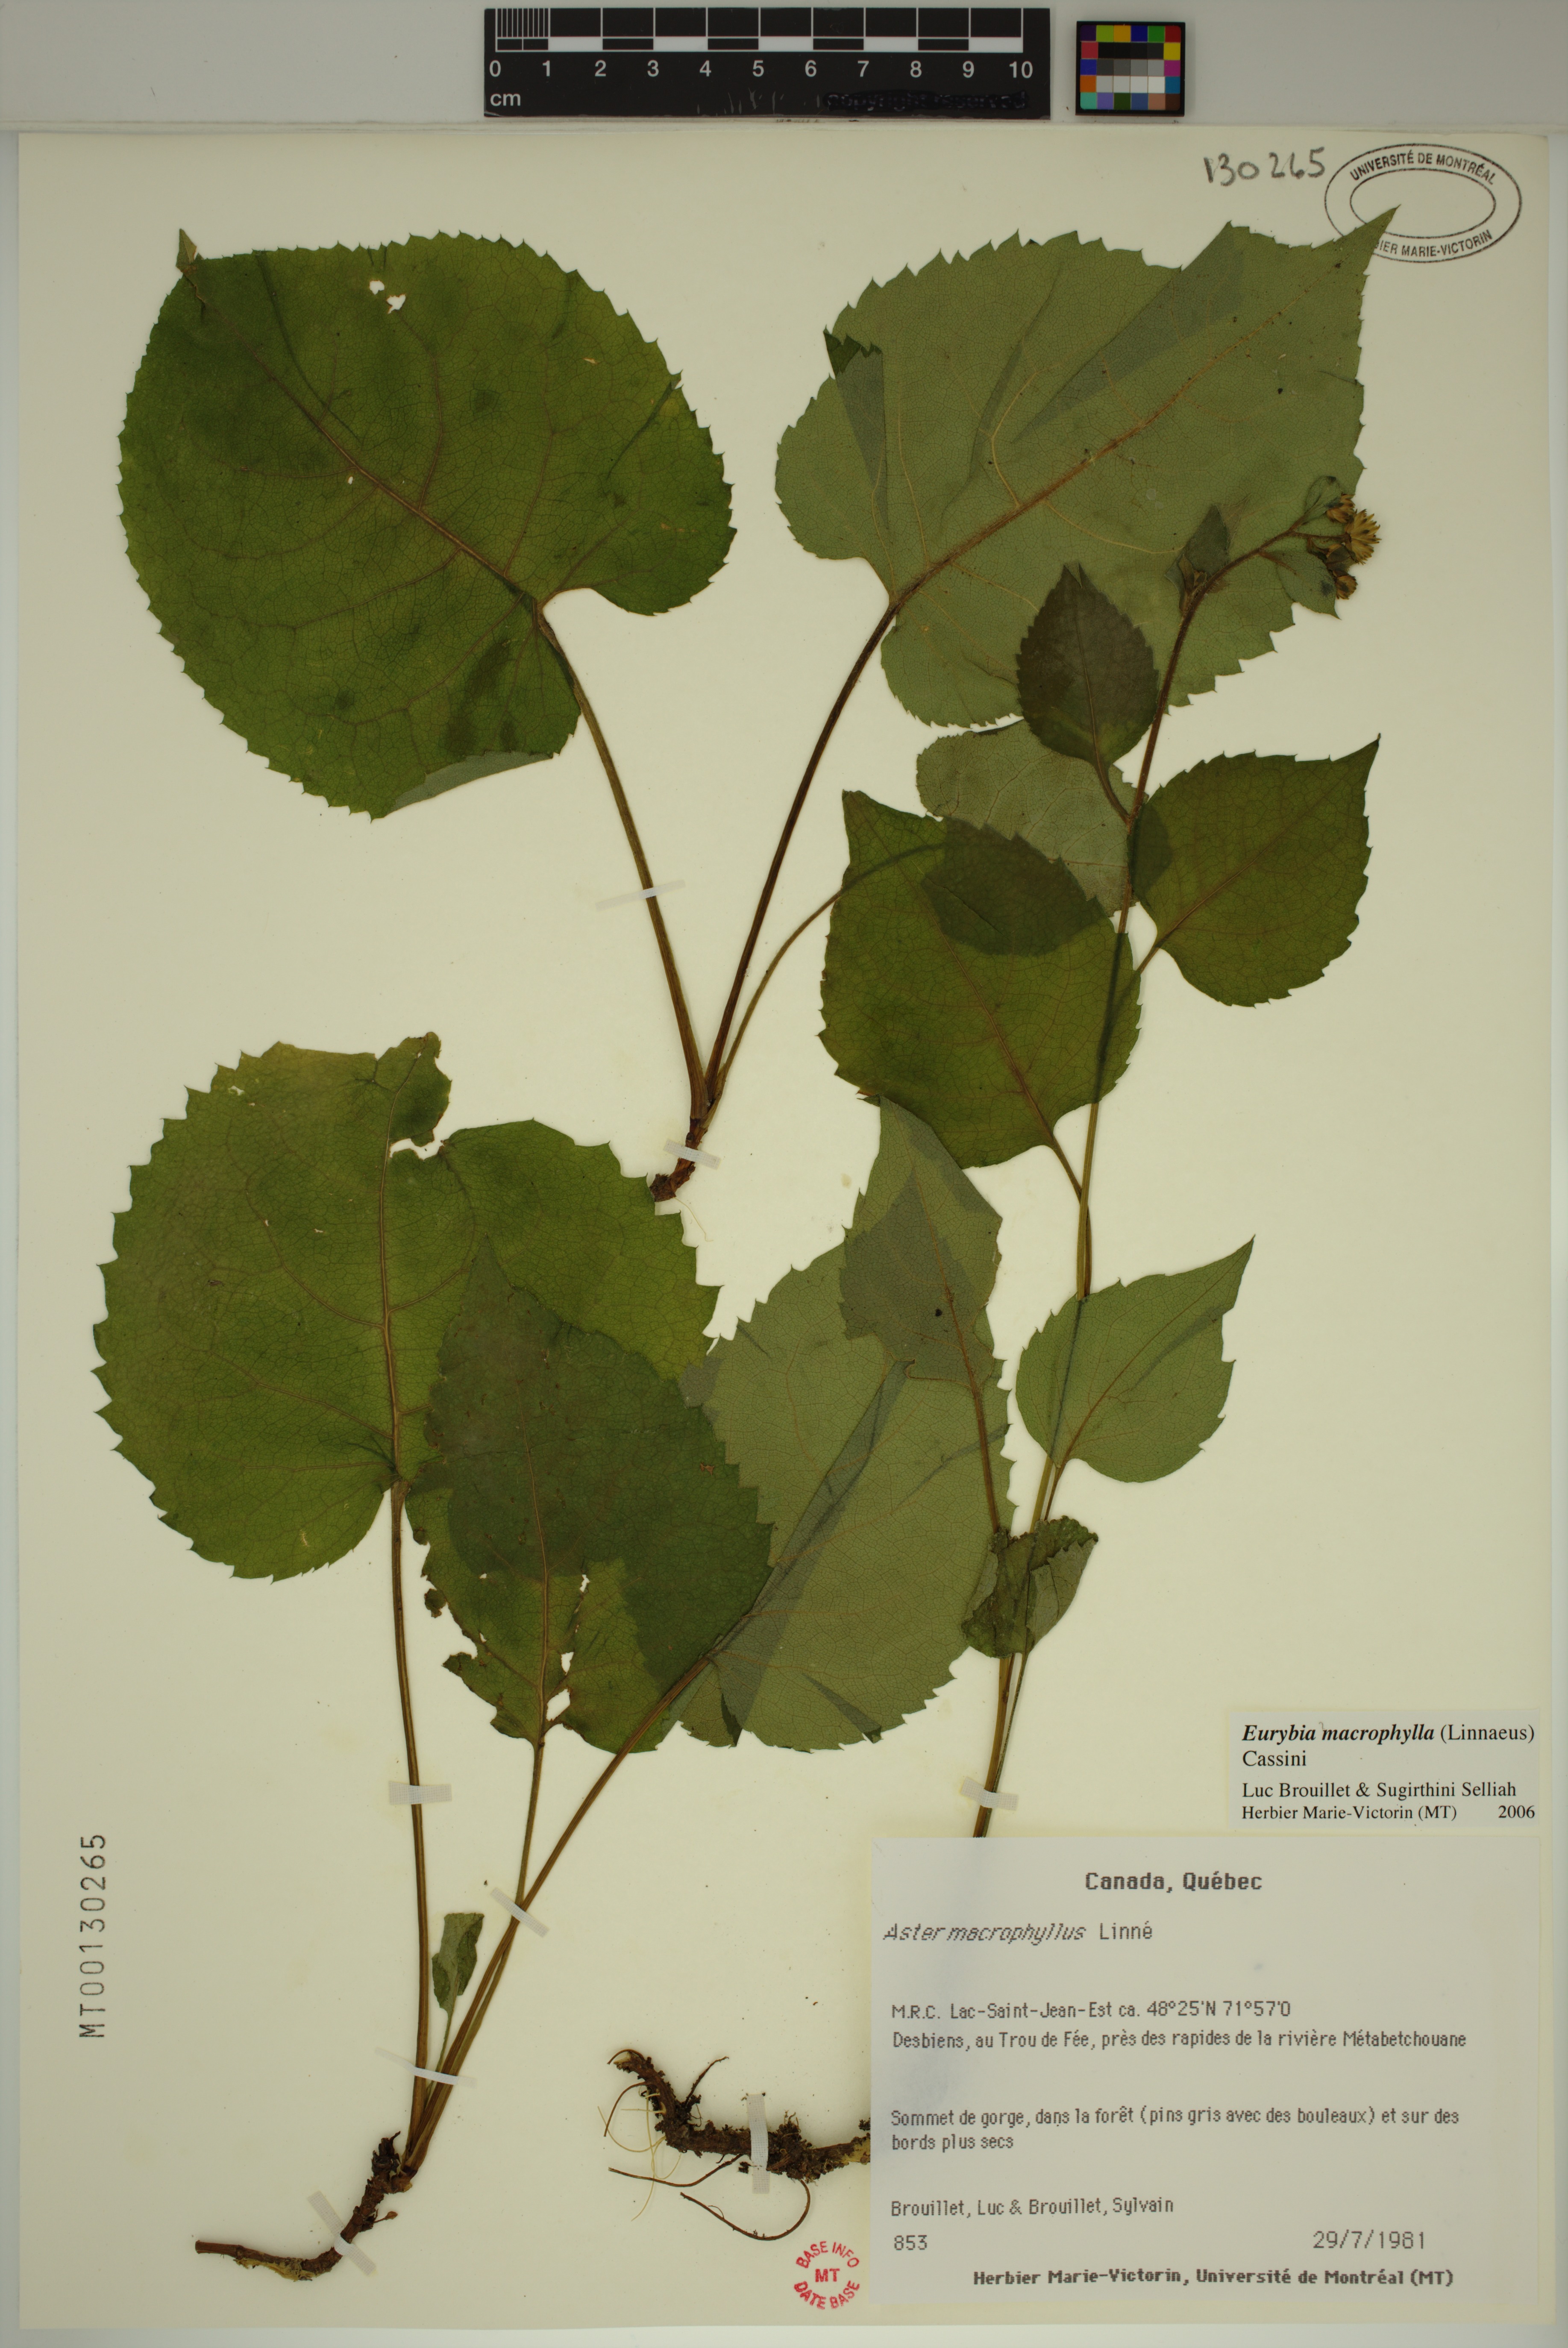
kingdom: Plantae
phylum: Tracheophyta
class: Magnoliopsida
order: Asterales
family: Asteraceae
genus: Eurybia
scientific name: Eurybia macrophylla
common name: Big-leaved aster
